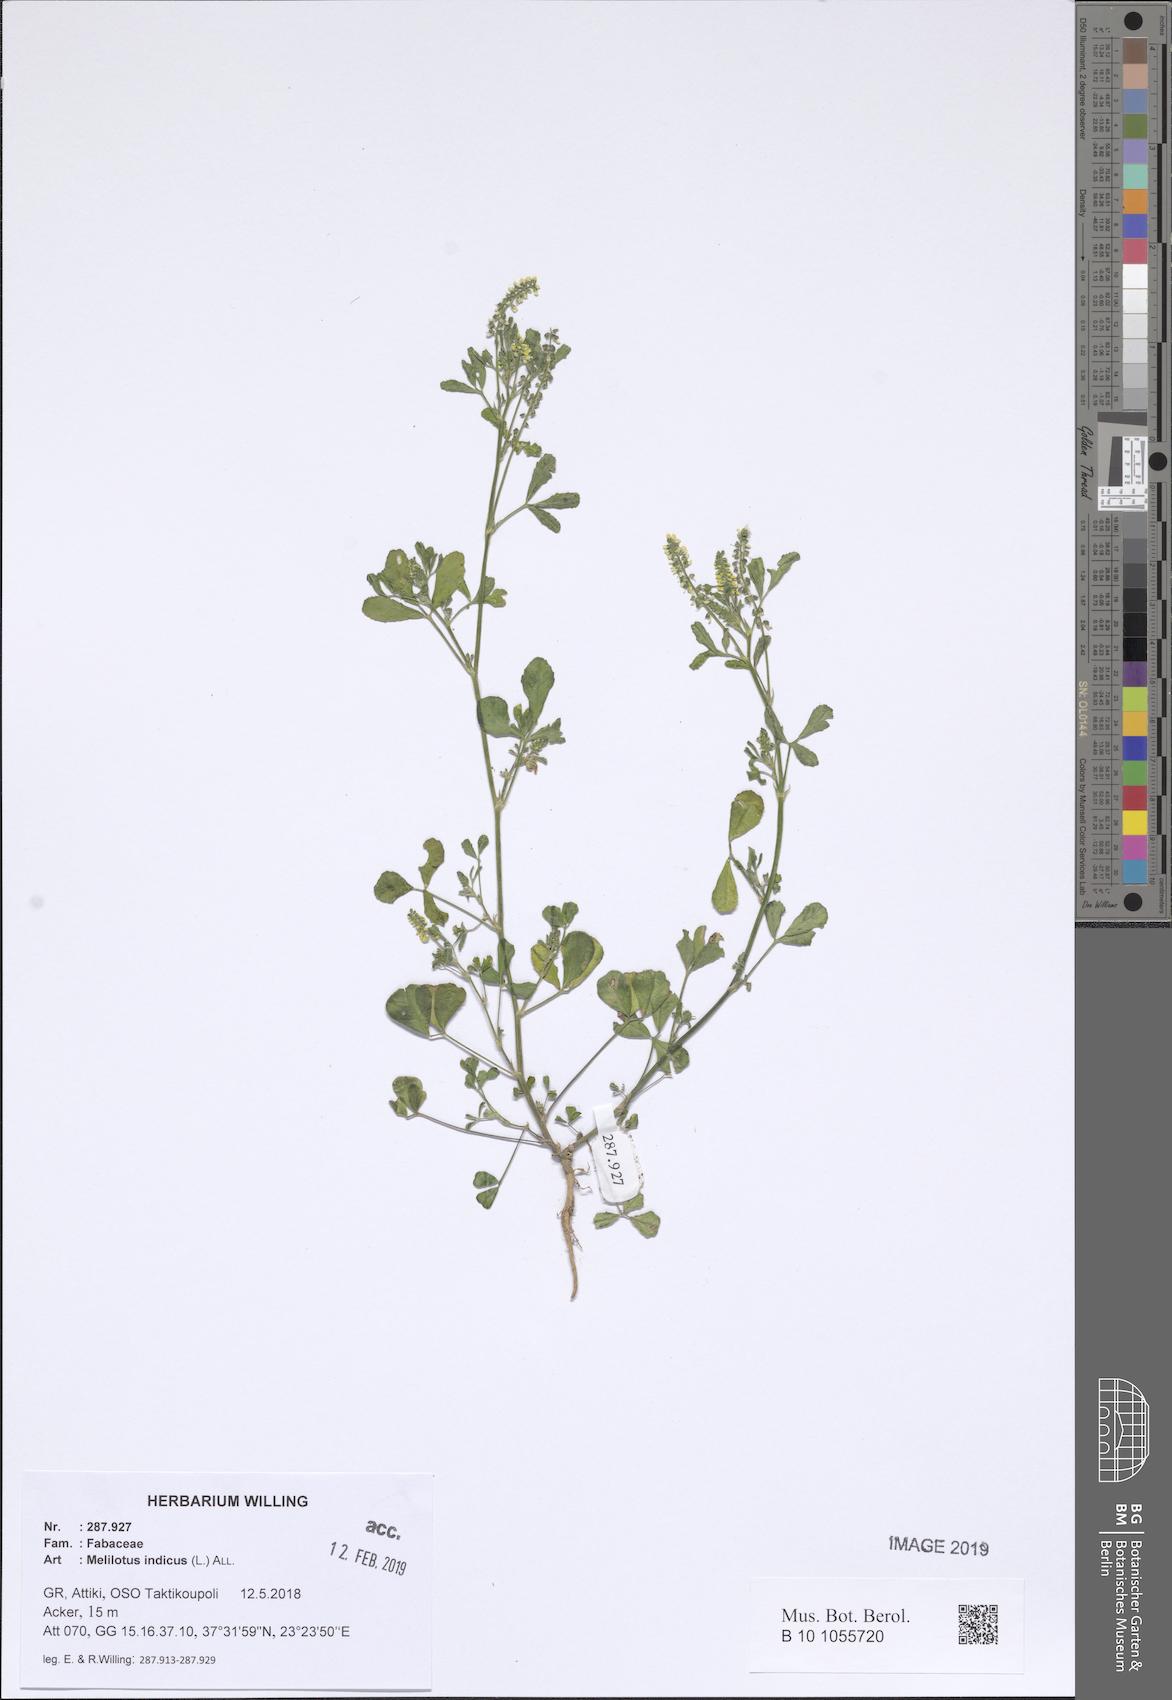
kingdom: Plantae
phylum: Tracheophyta
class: Magnoliopsida
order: Fabales
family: Fabaceae
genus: Melilotus
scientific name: Melilotus indicus
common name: Small melilot
